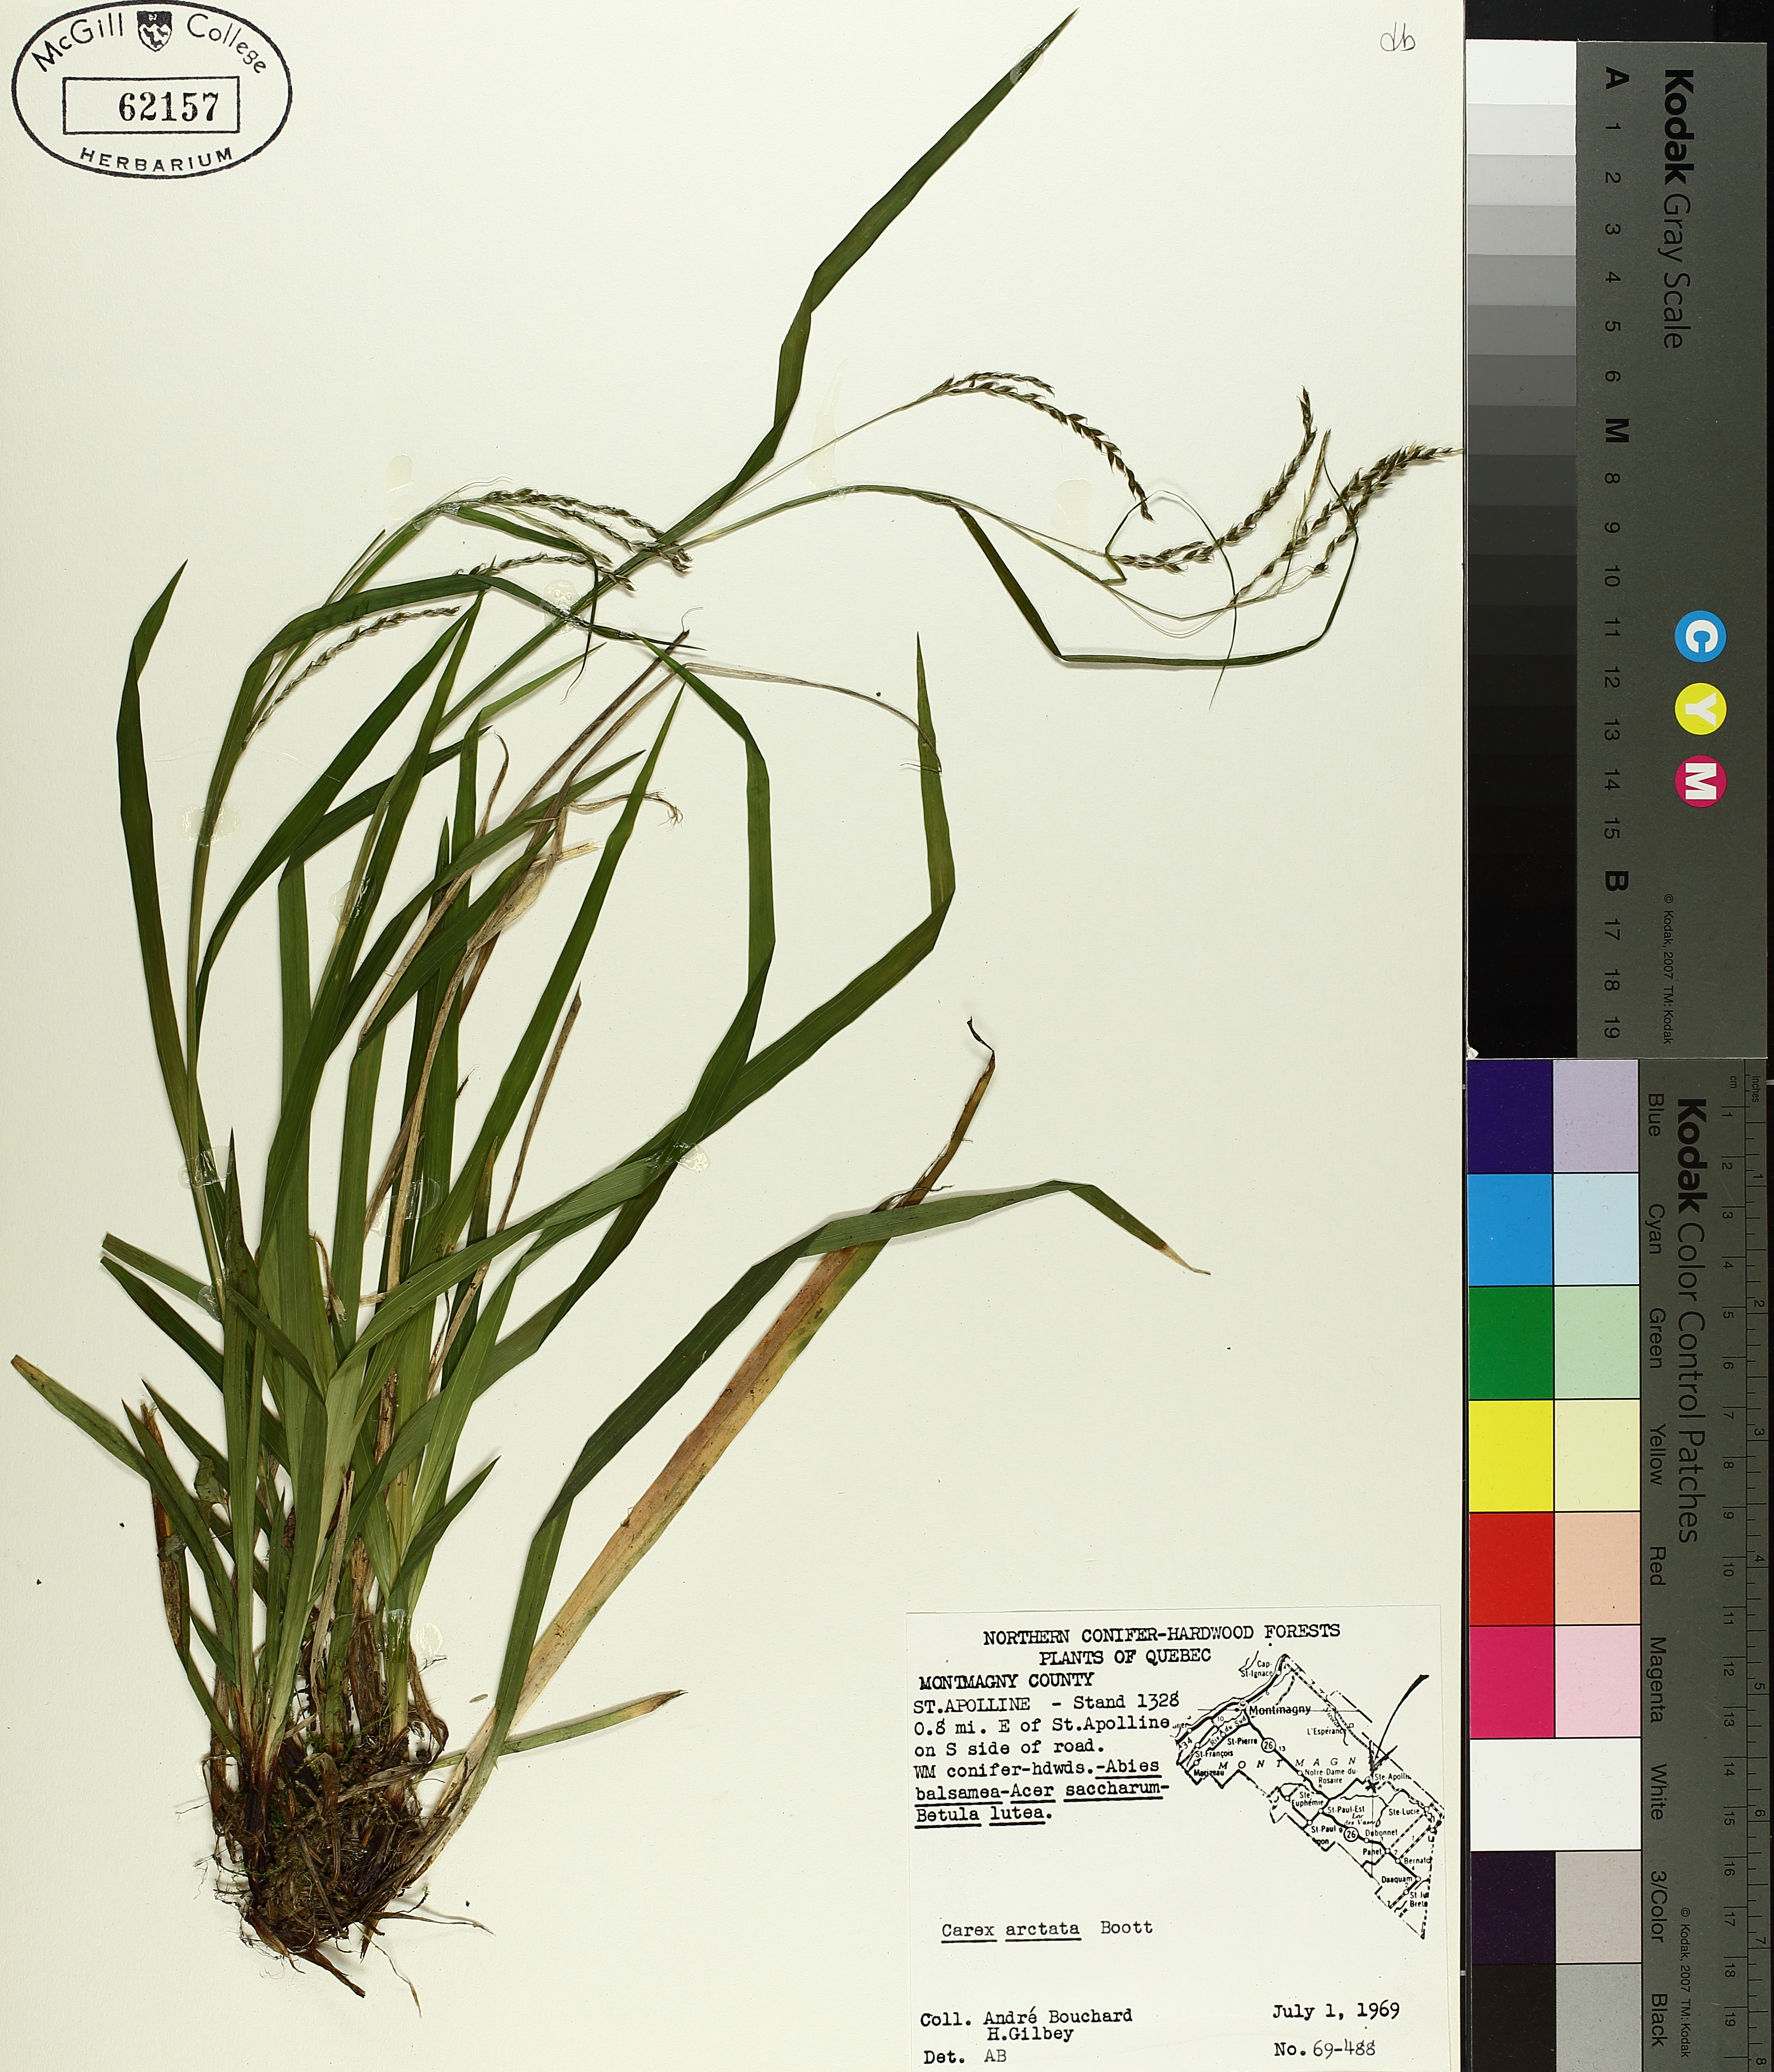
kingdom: Plantae
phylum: Tracheophyta
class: Liliopsida
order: Poales
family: Cyperaceae
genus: Carex
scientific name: Carex arctata
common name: Black sedge
